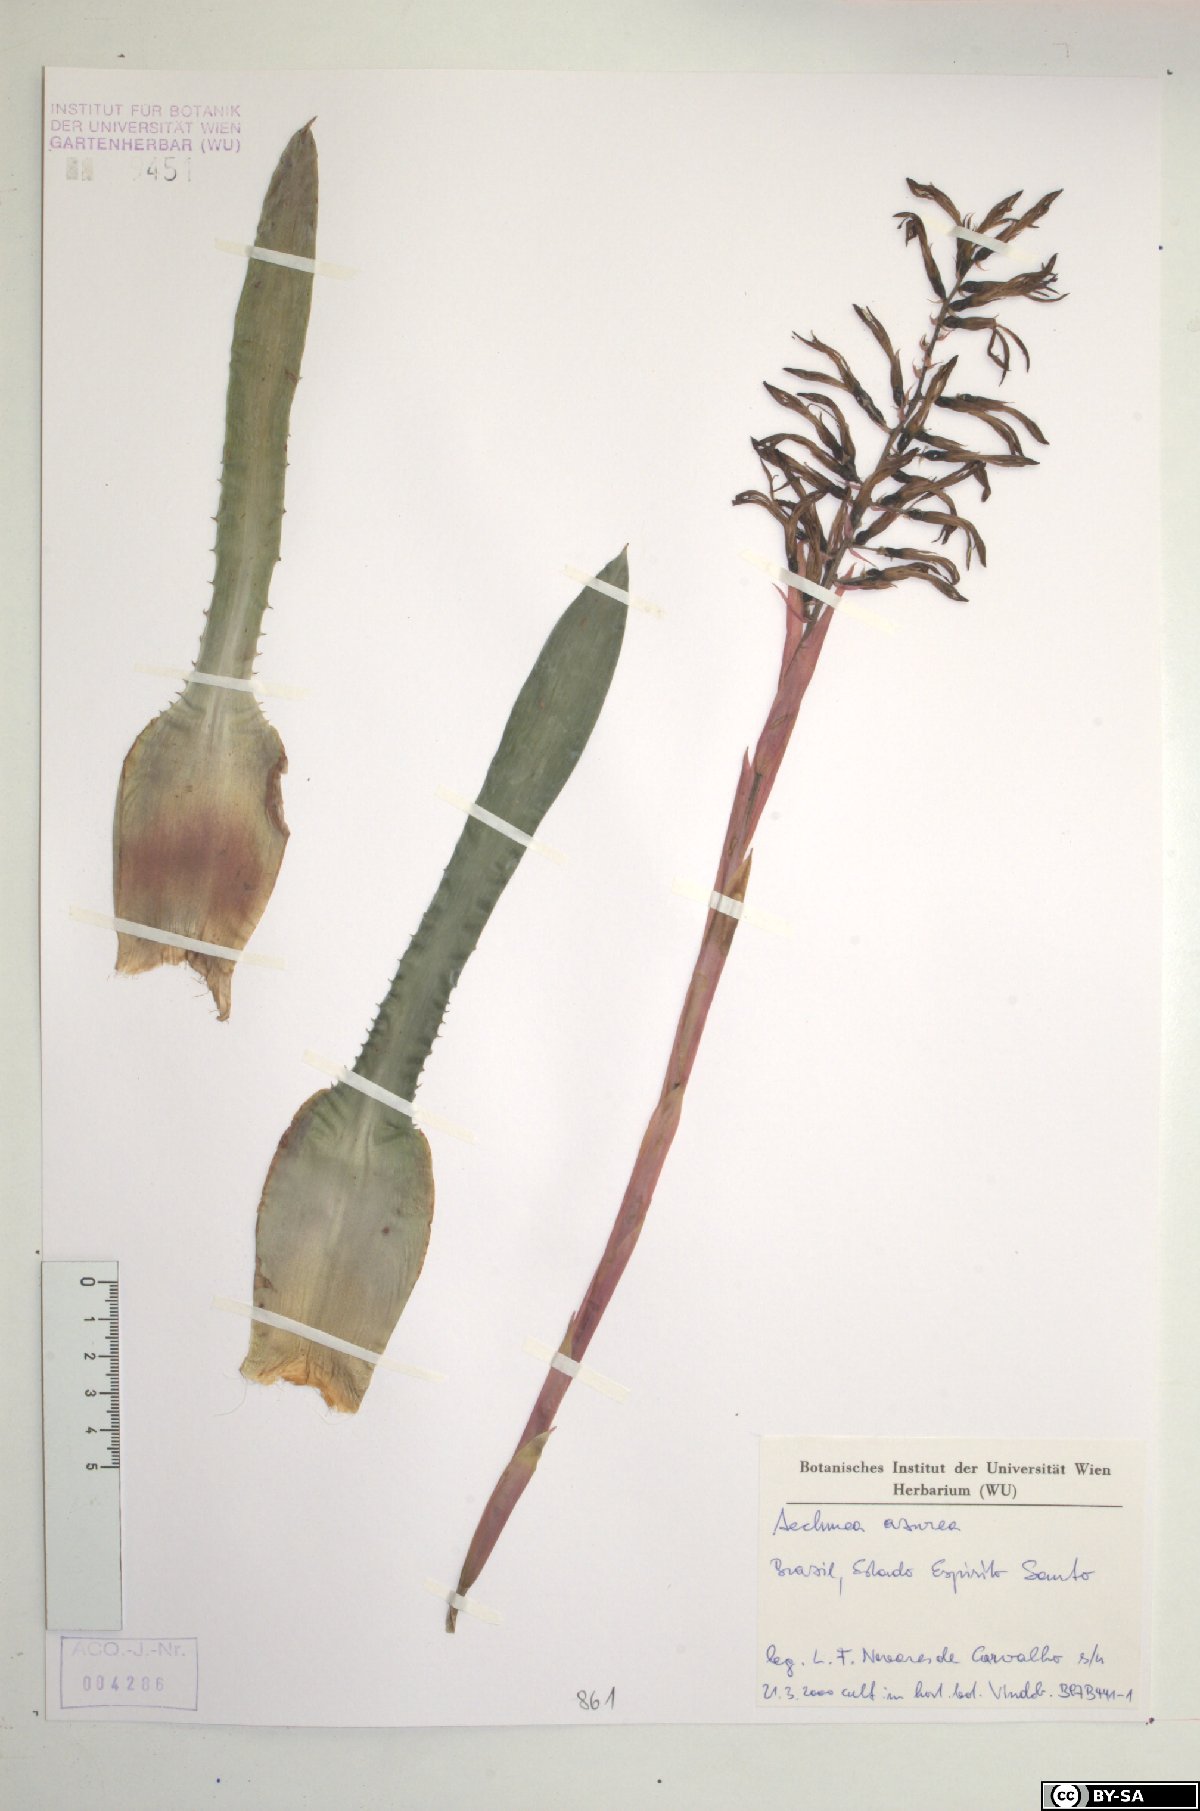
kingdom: Plantae
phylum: Tracheophyta
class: Liliopsida
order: Poales
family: Bromeliaceae
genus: Aechmea
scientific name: Aechmea azurea
